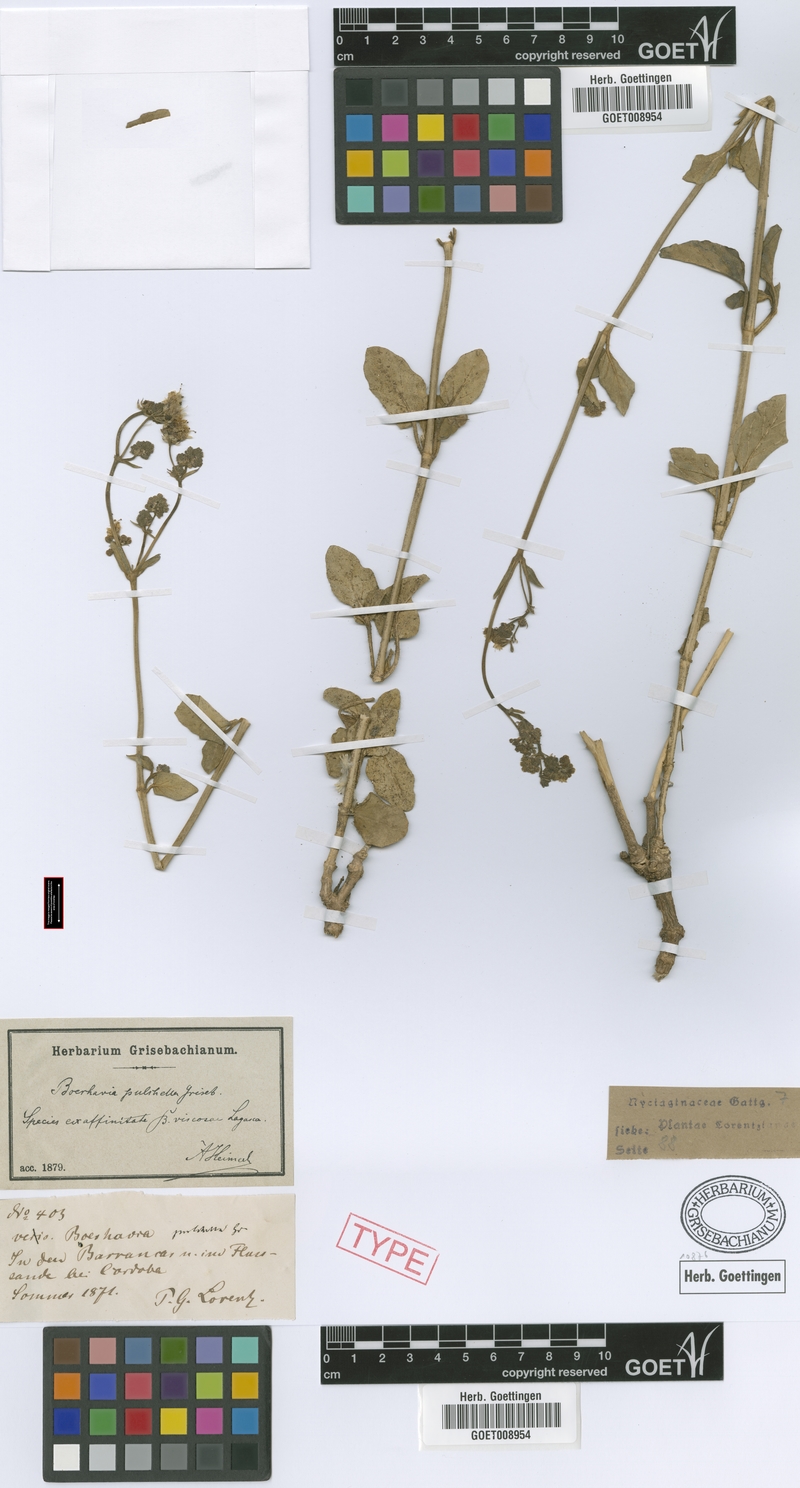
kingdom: Plantae
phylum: Tracheophyta
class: Magnoliopsida
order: Caryophyllales
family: Nyctaginaceae
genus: Boerhavia
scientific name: Boerhavia pulchella
